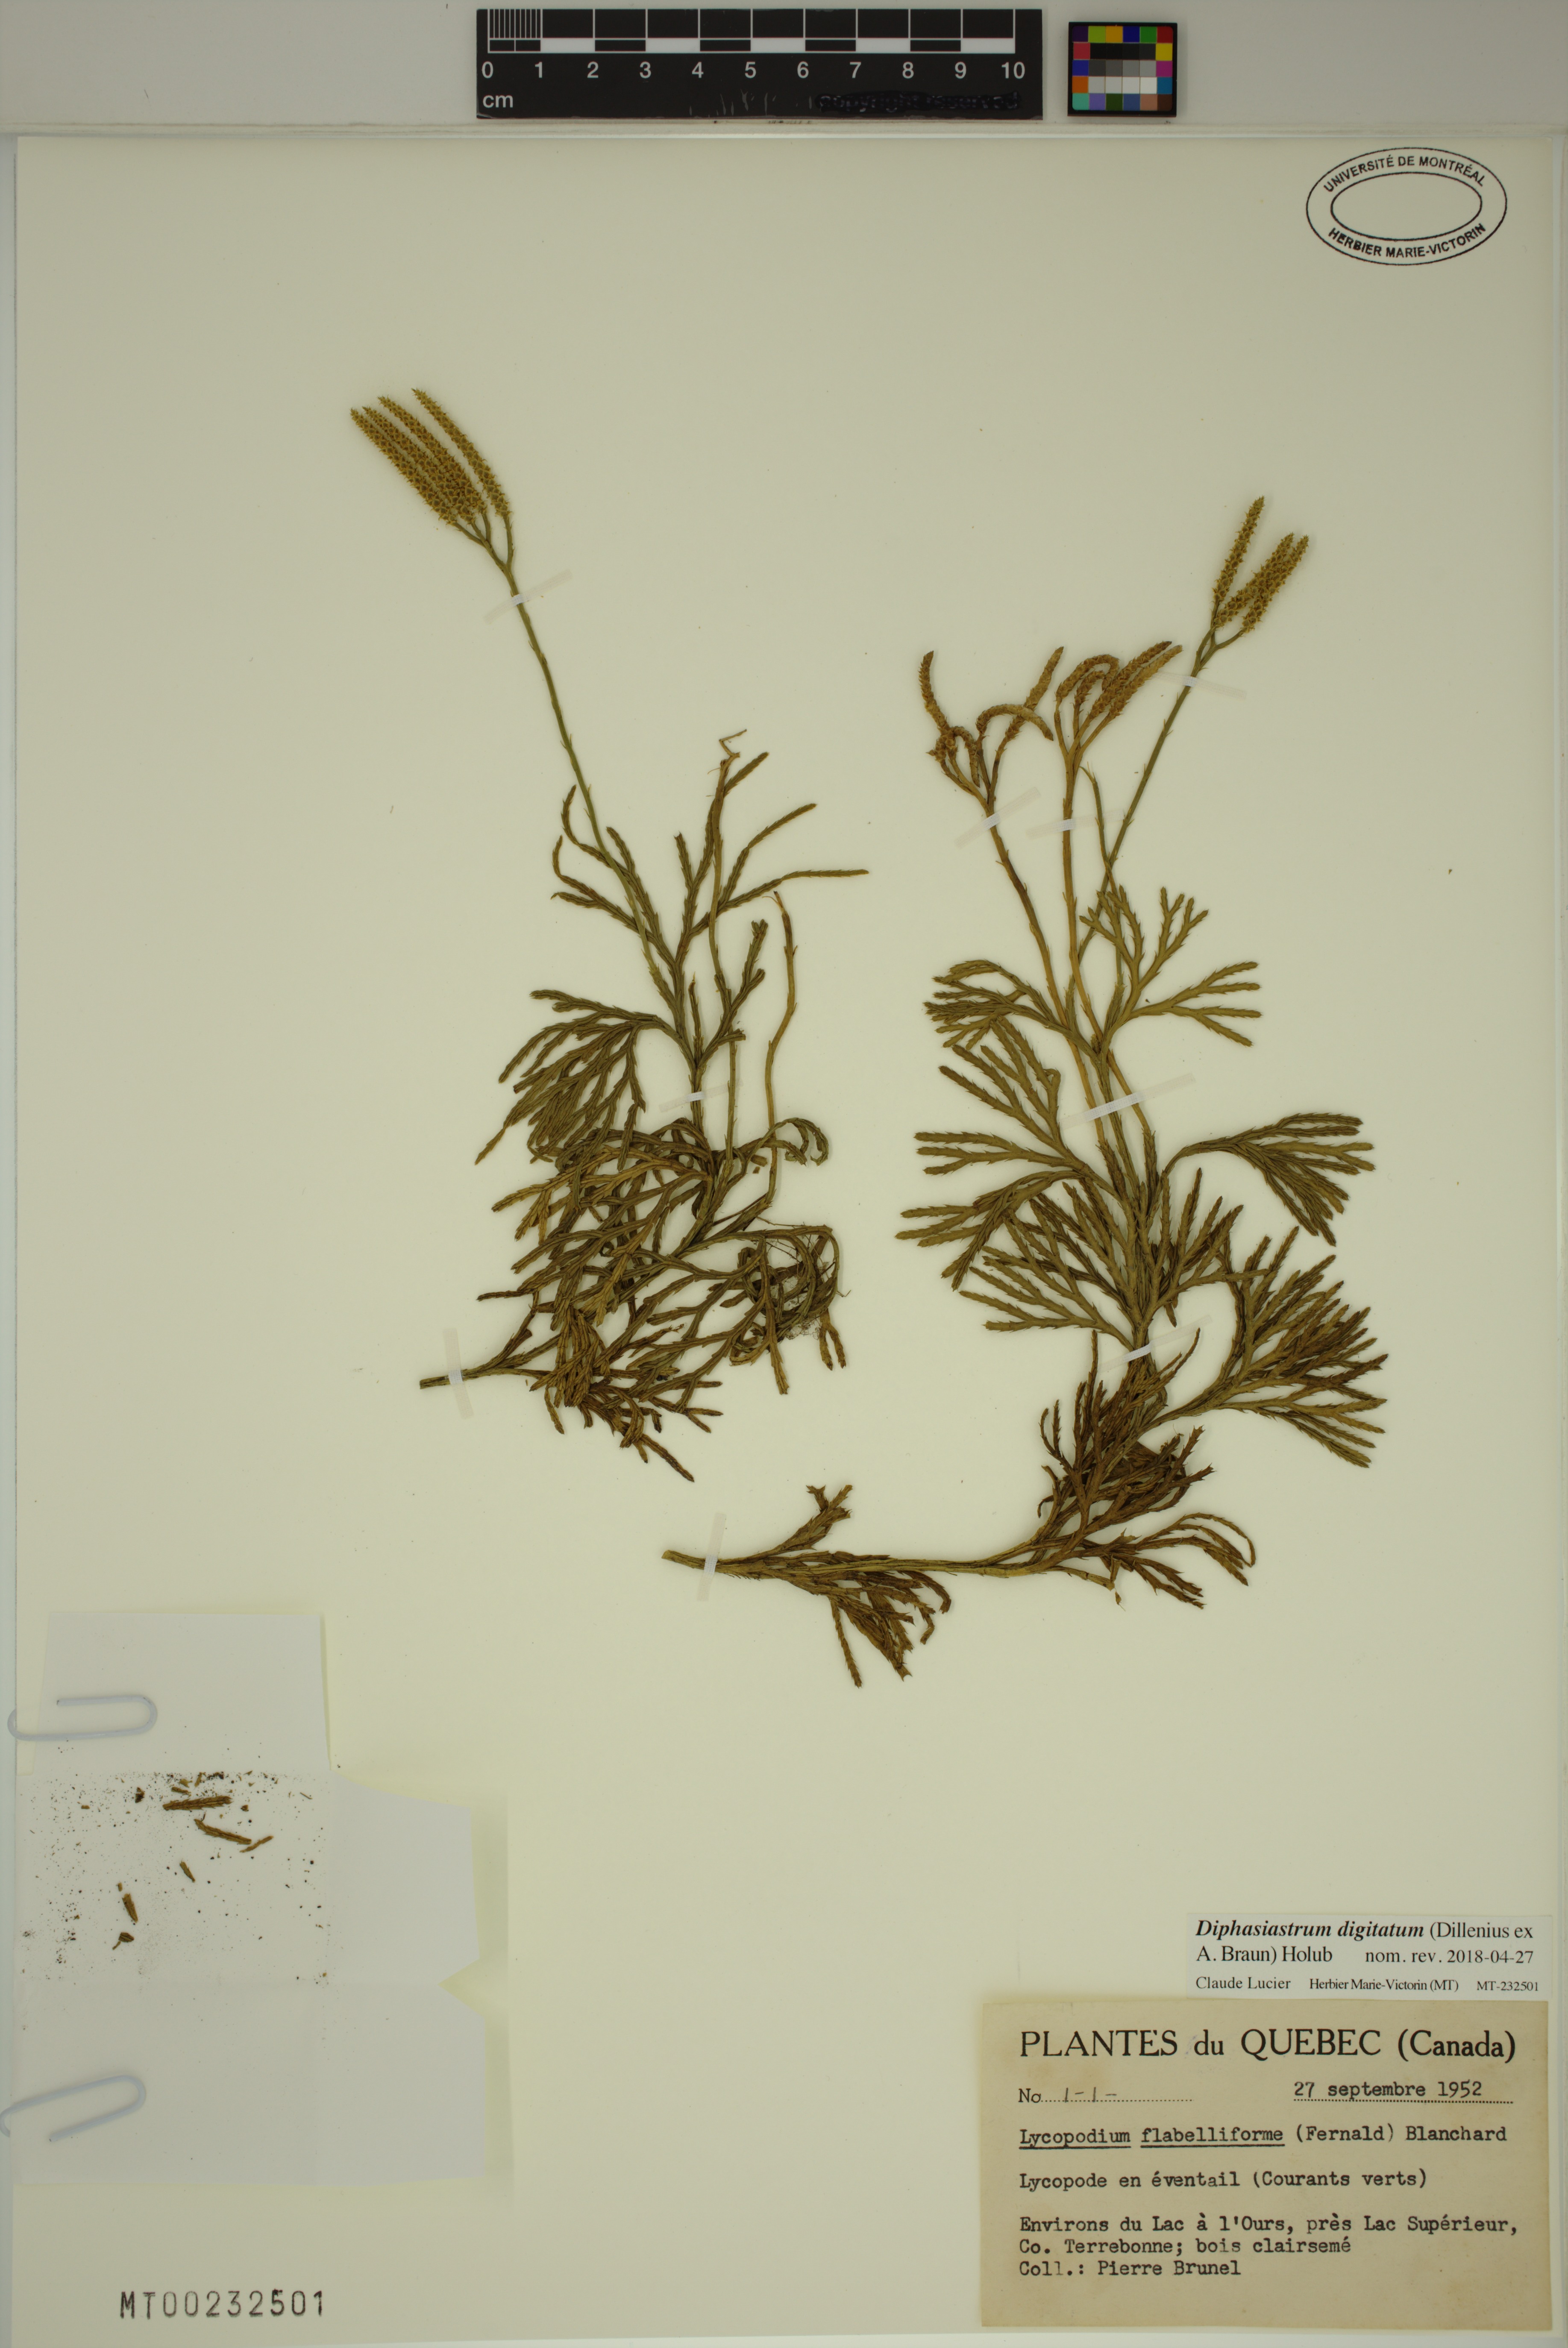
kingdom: Plantae
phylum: Tracheophyta
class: Lycopodiopsida
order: Lycopodiales
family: Lycopodiaceae
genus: Diphasiastrum
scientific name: Diphasiastrum digitatum
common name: Southern running-pine
